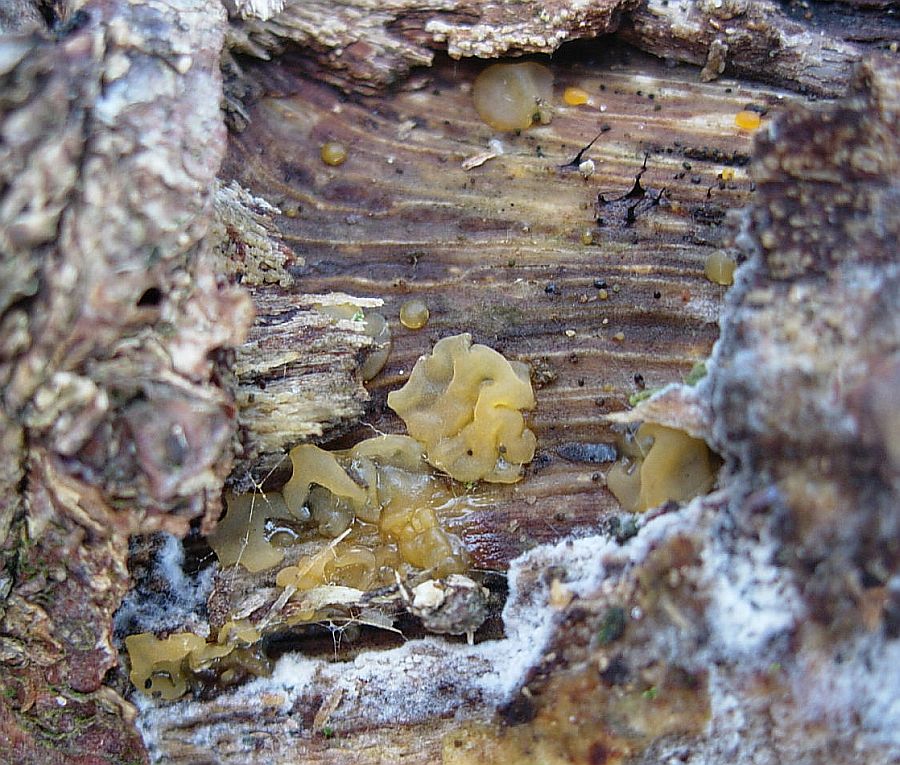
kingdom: Fungi
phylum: Basidiomycota
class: Dacrymycetes
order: Dacrymycetales
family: Dacrymycetaceae
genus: Dacrymyces
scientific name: Dacrymyces lacrymalis
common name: rynket tåresvamp
